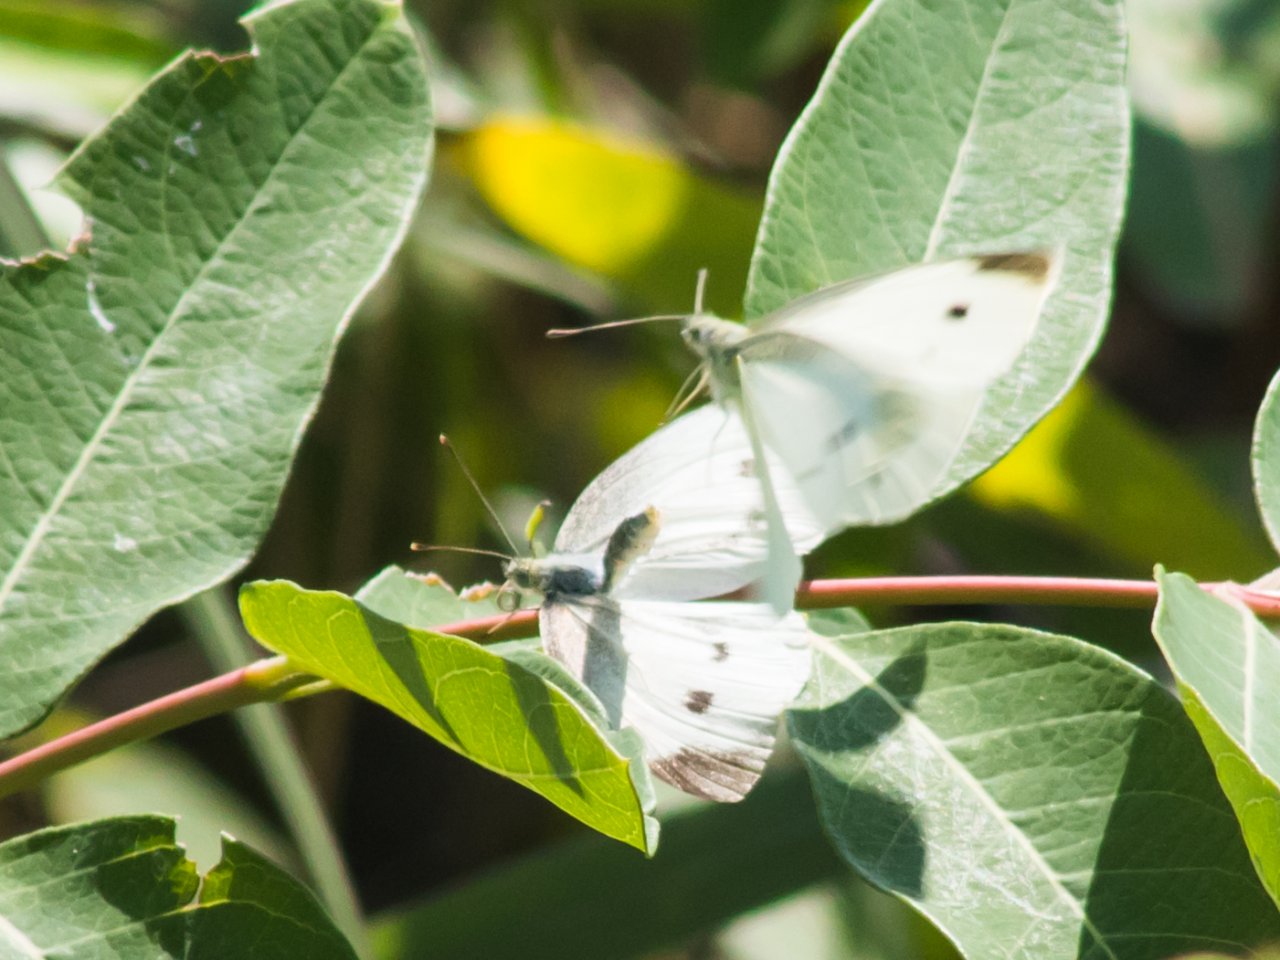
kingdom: Animalia
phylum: Arthropoda
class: Insecta
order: Lepidoptera
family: Pieridae
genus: Pieris
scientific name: Pieris rapae
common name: Cabbage White
